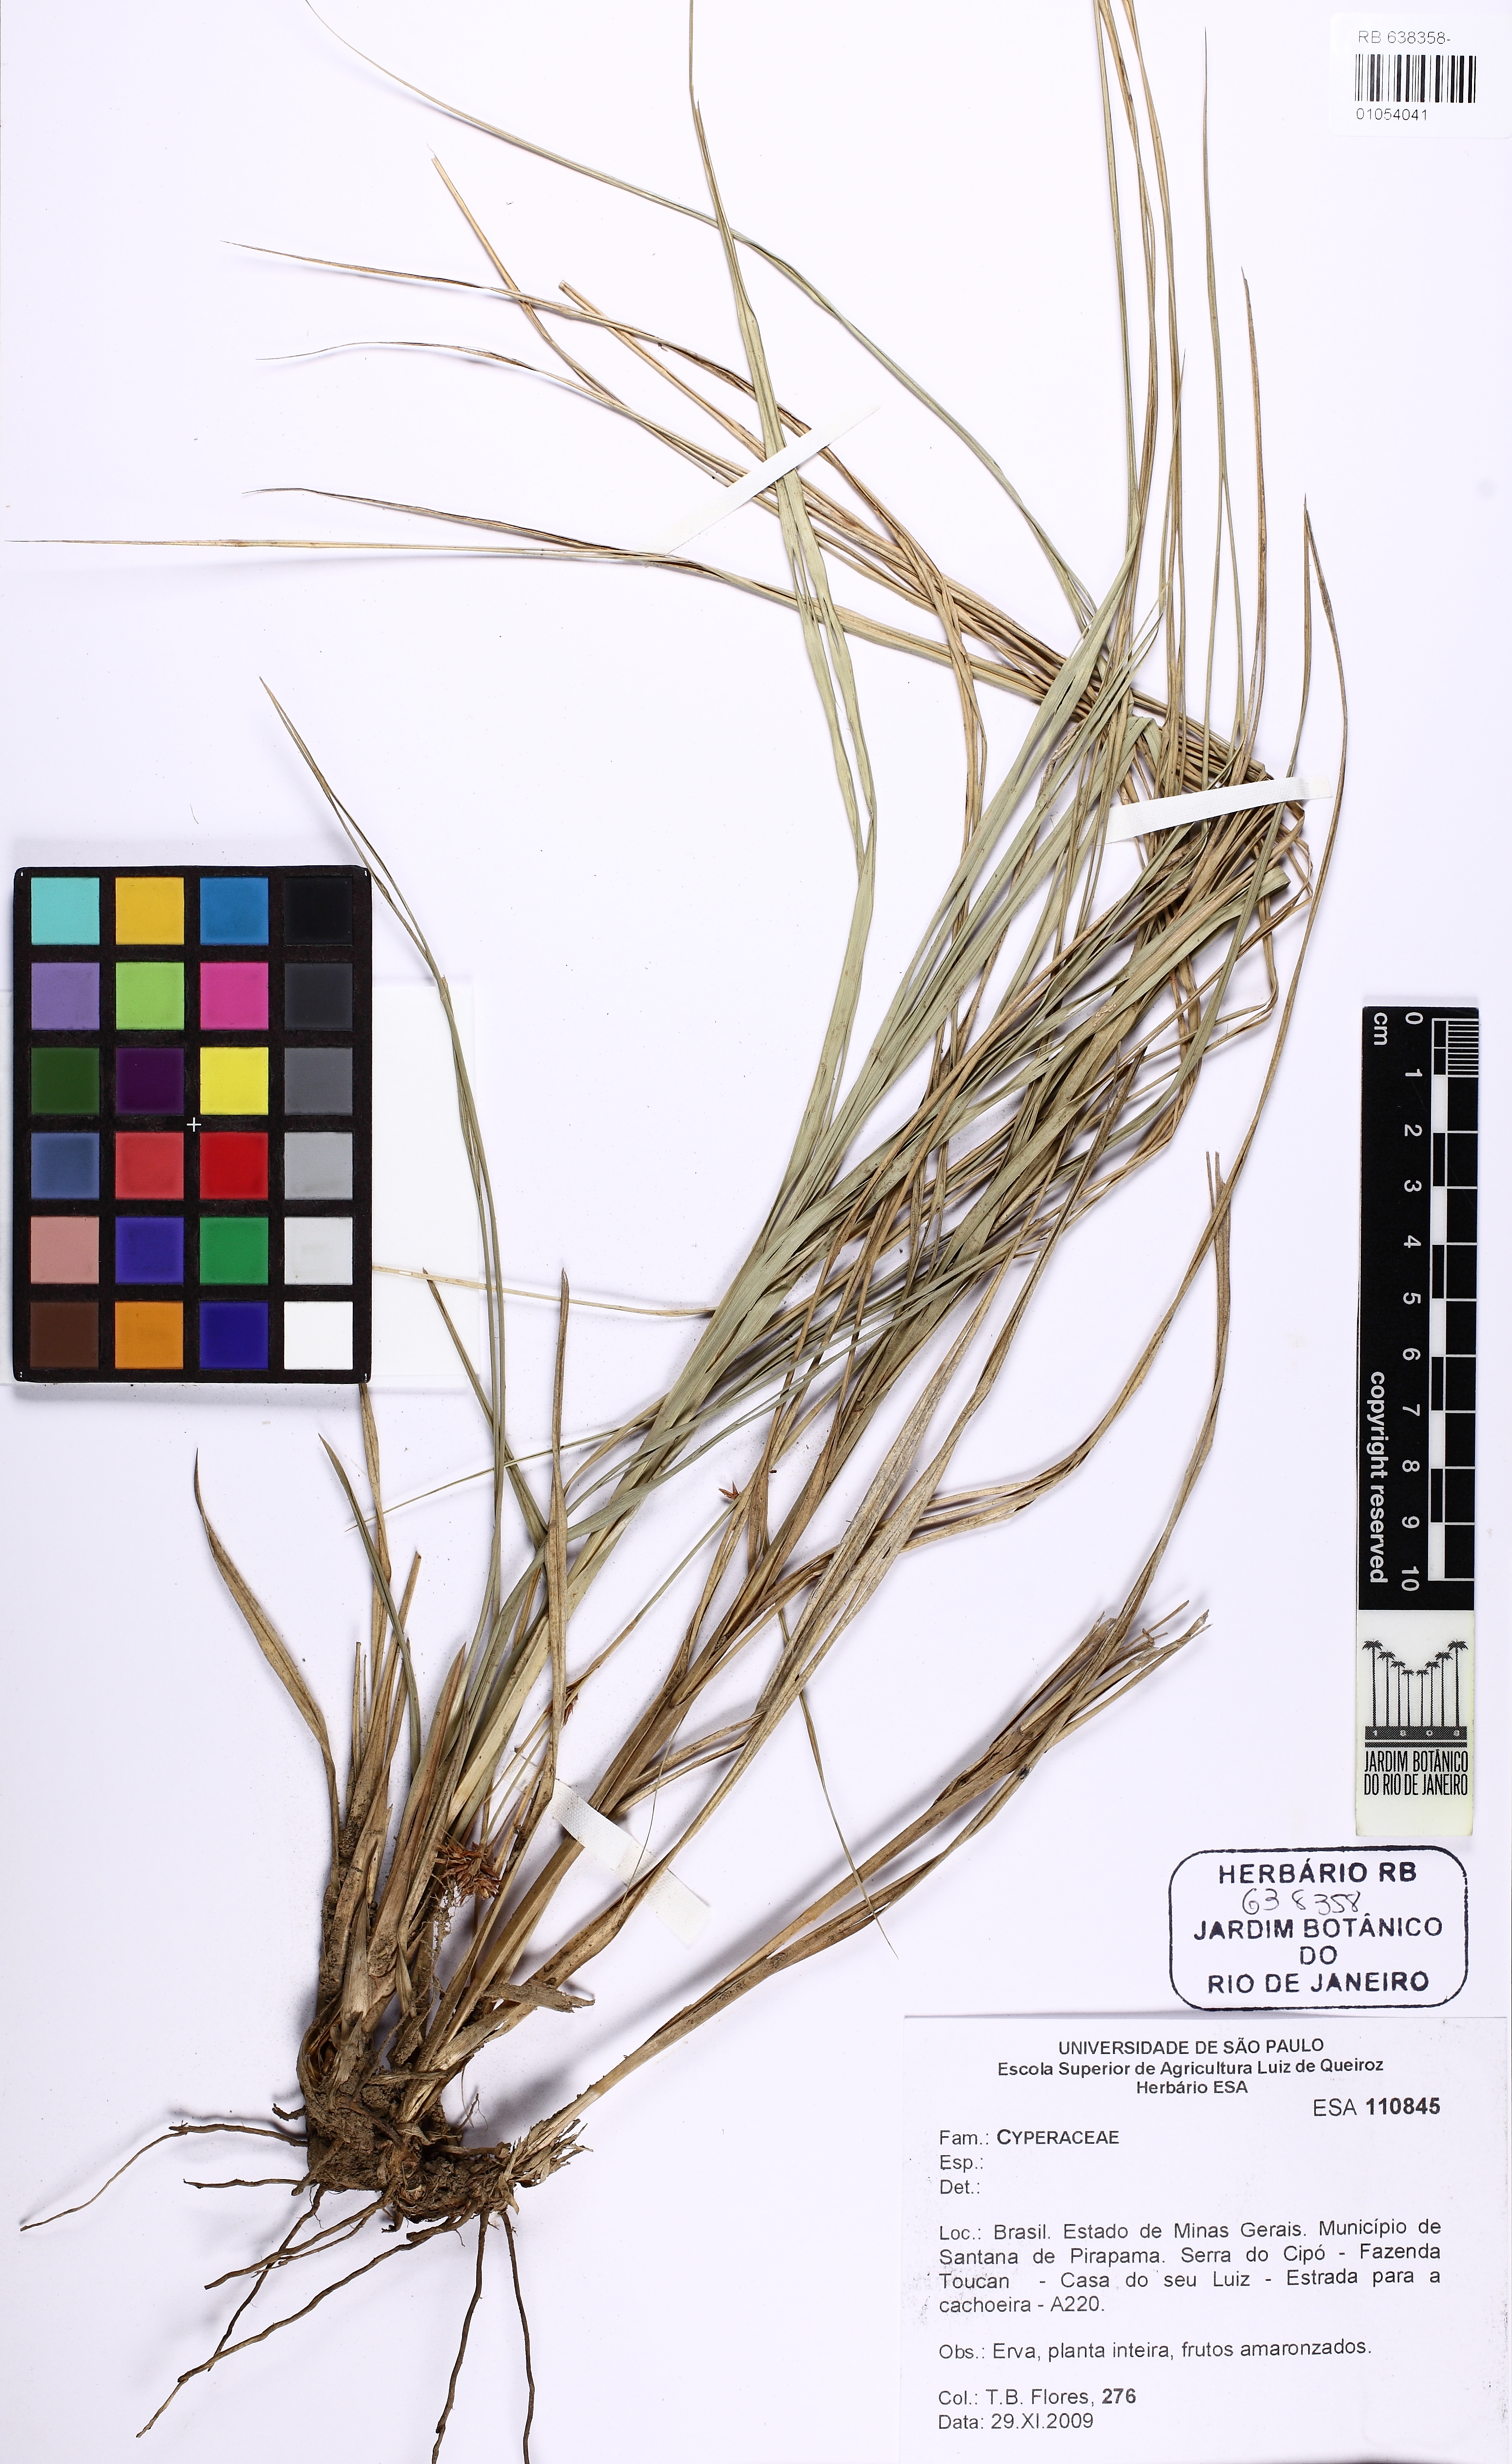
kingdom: Plantae
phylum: Tracheophyta
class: Liliopsida
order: Poales
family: Cyperaceae
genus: Rhynchospora
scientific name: Rhynchospora
